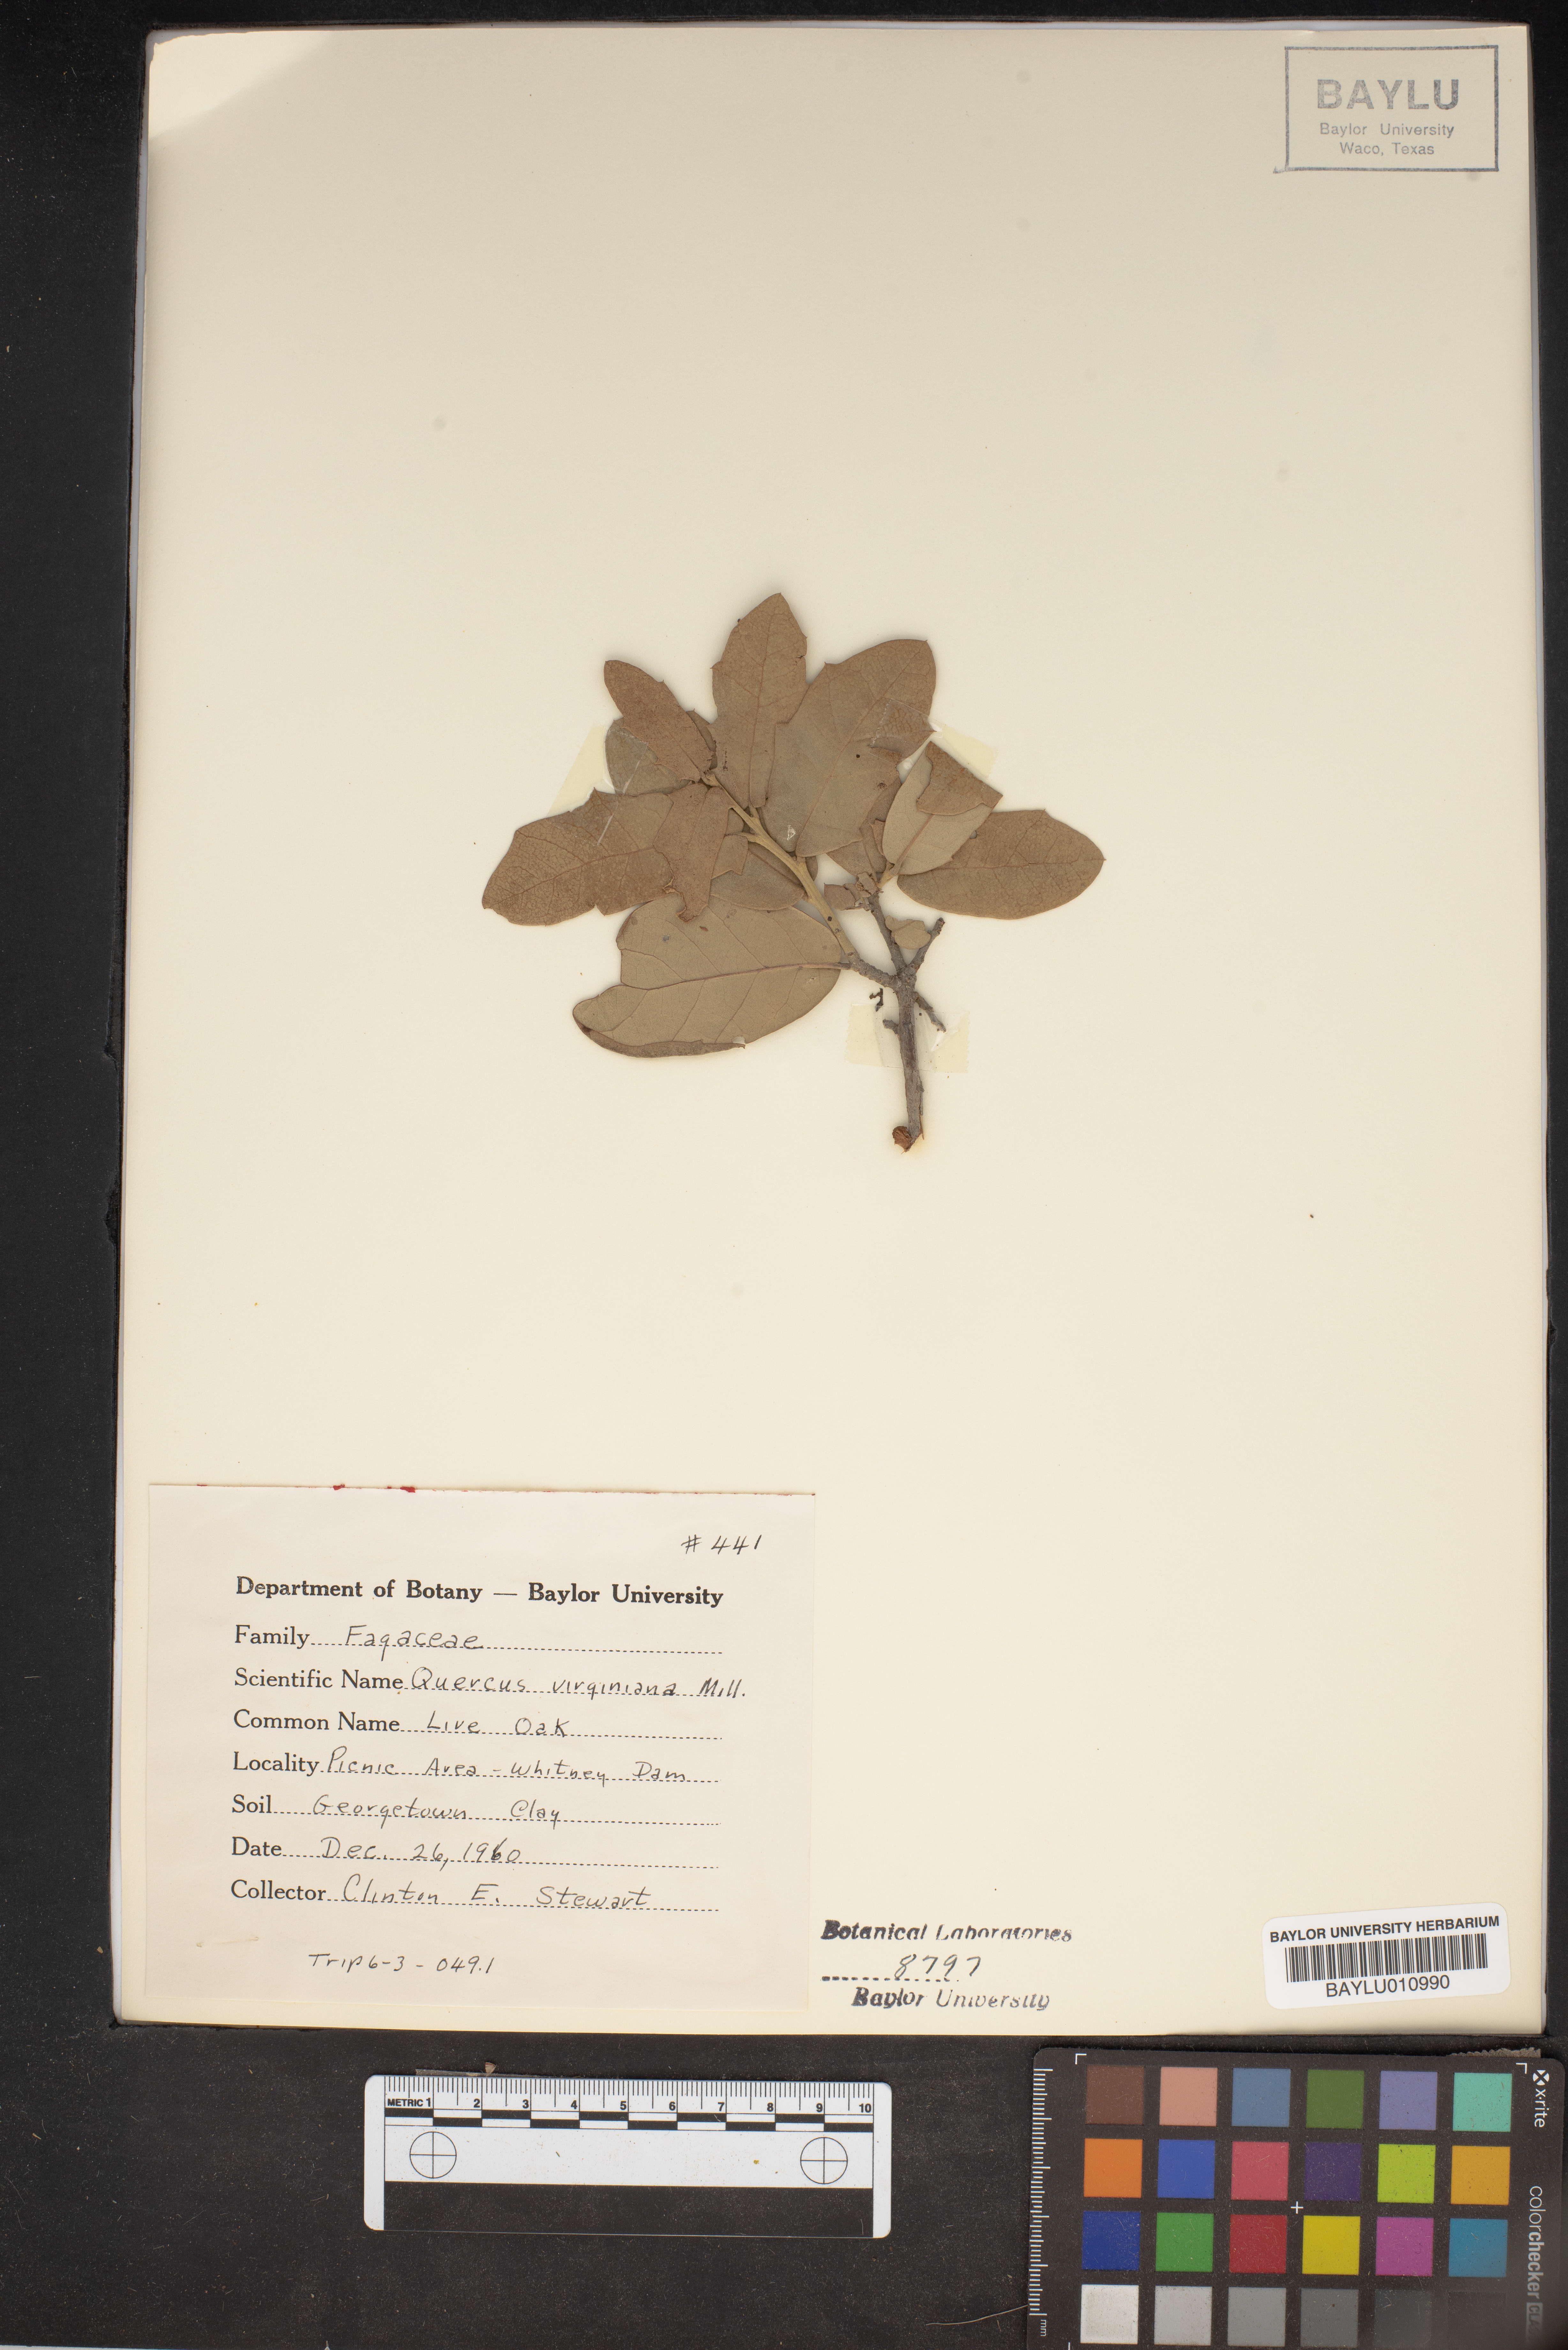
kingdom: Plantae
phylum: Tracheophyta
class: Magnoliopsida
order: Fagales
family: Fagaceae
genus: Quercus
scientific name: Quercus virginiana
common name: Southern live oak
